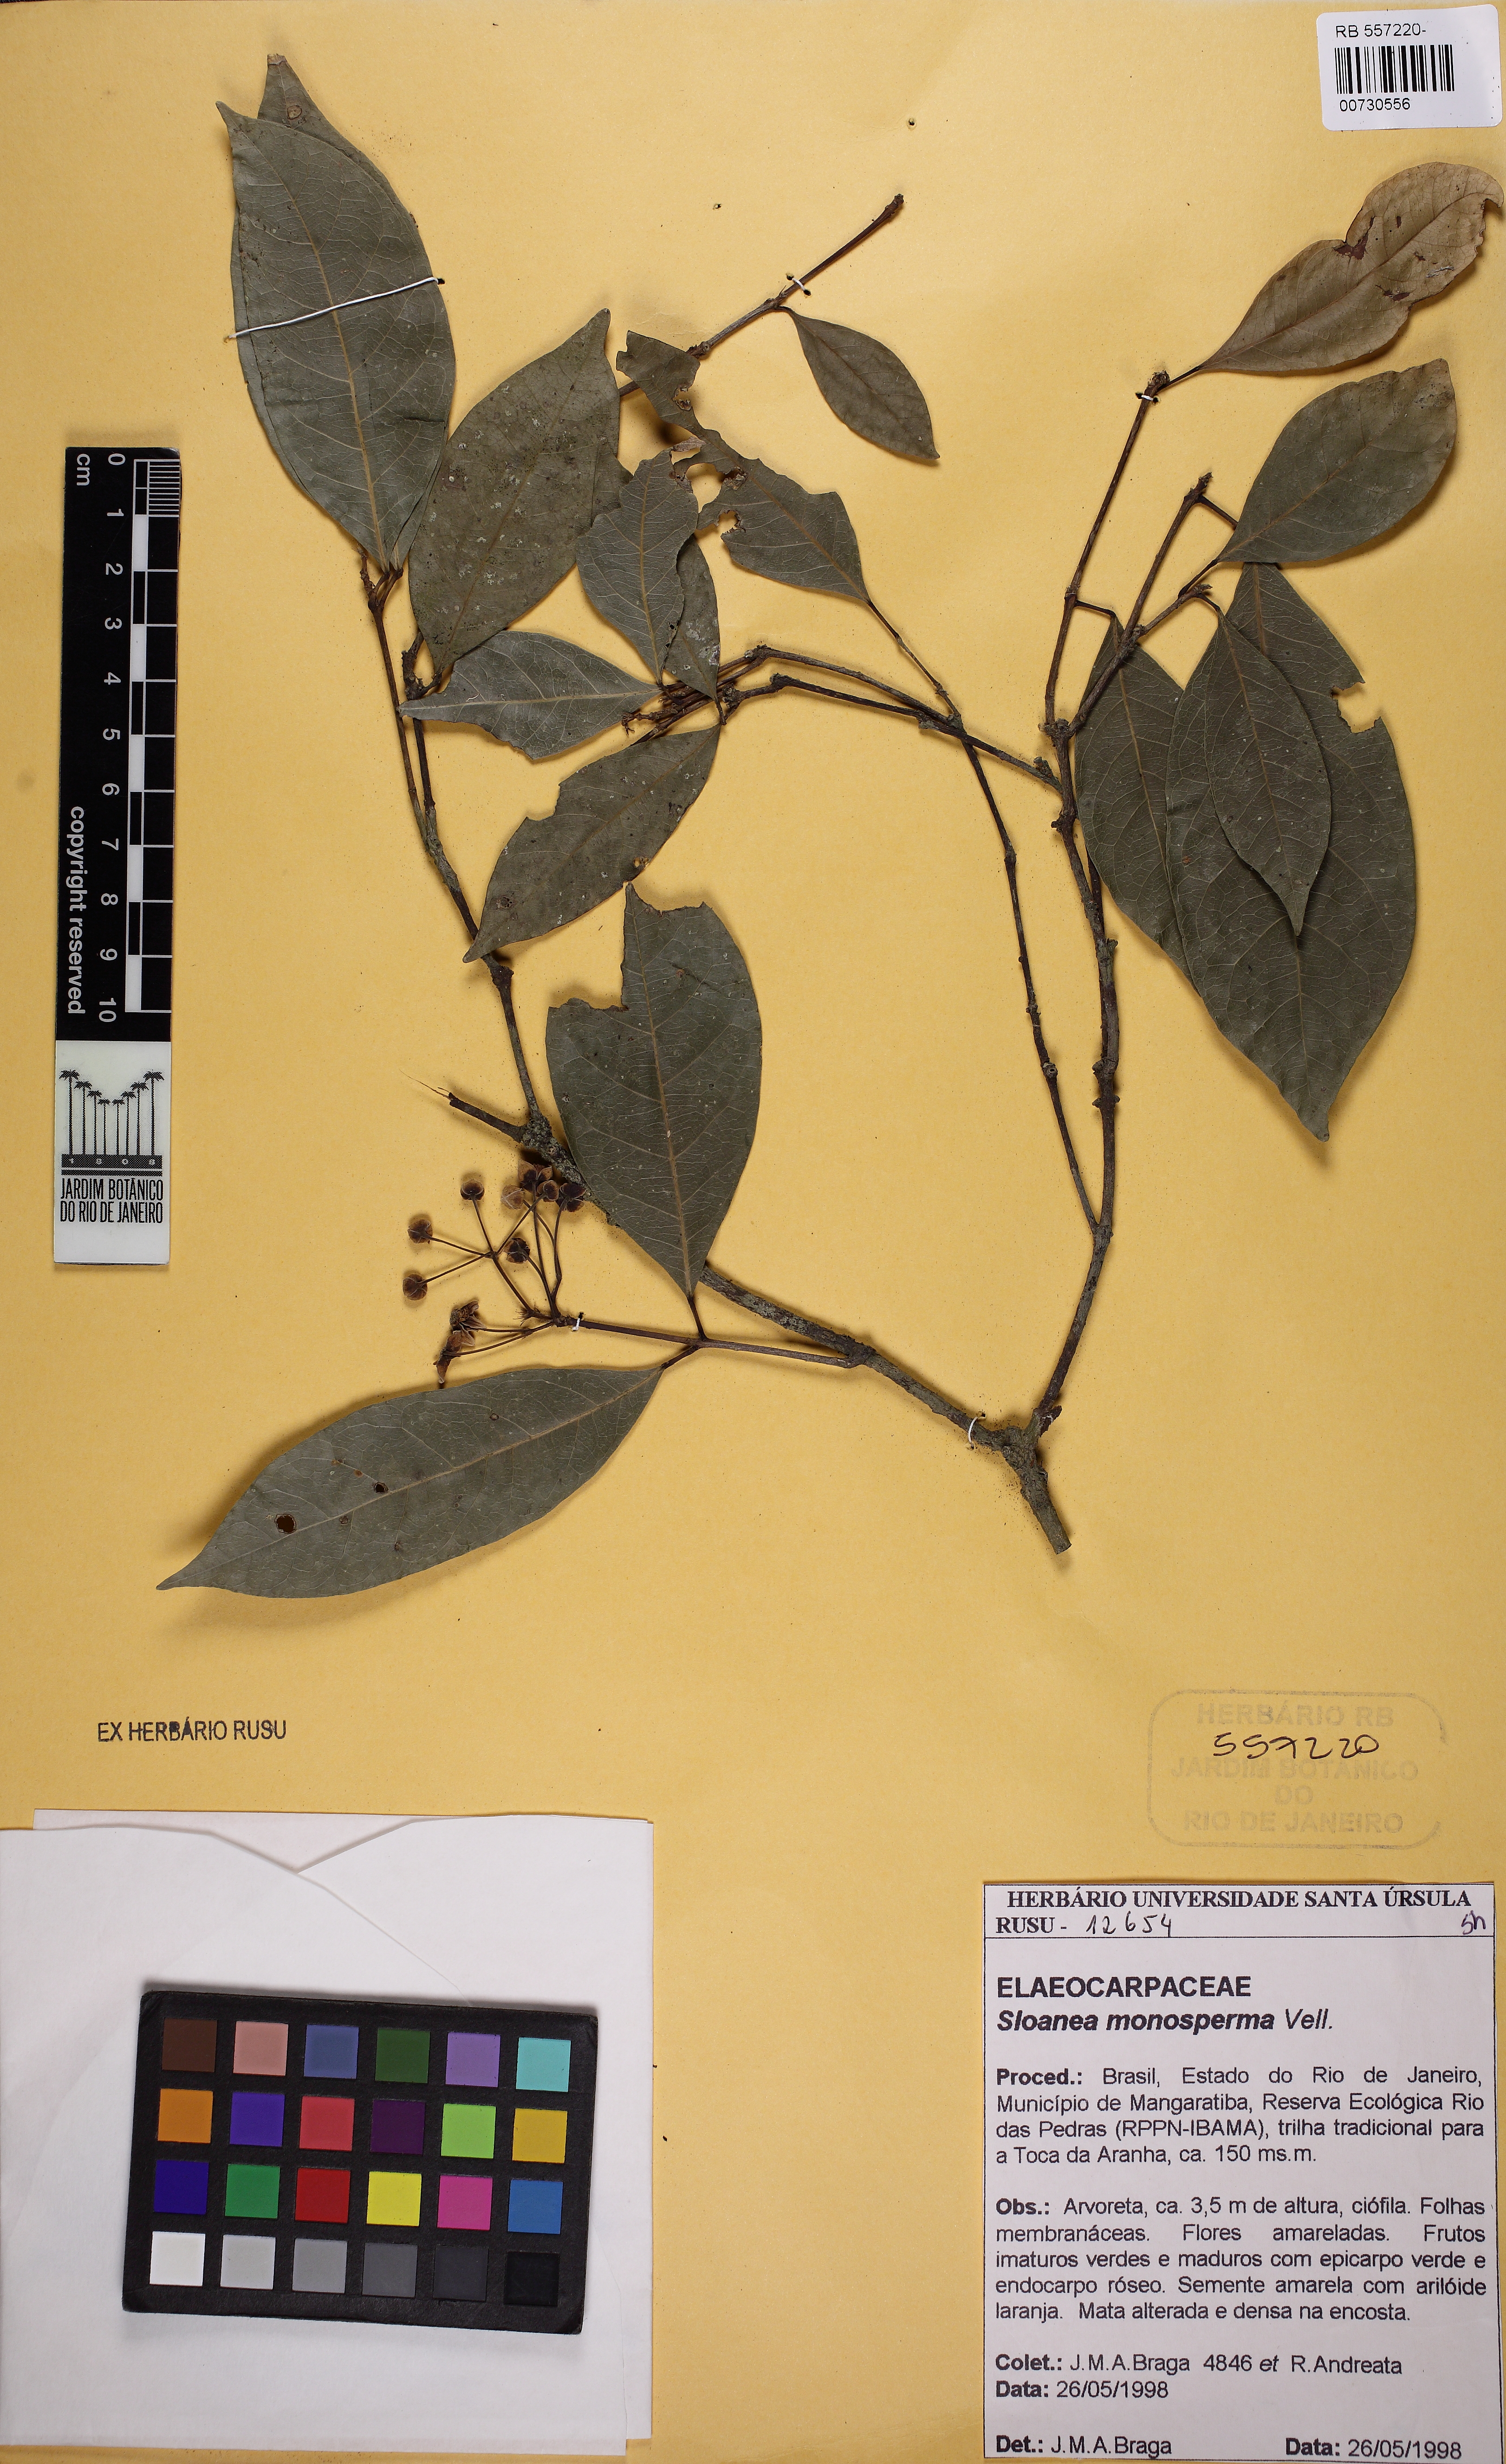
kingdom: Plantae
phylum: Tracheophyta
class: Magnoliopsida
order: Oxalidales
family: Elaeocarpaceae
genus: Sloanea
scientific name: Sloanea hirsuta
